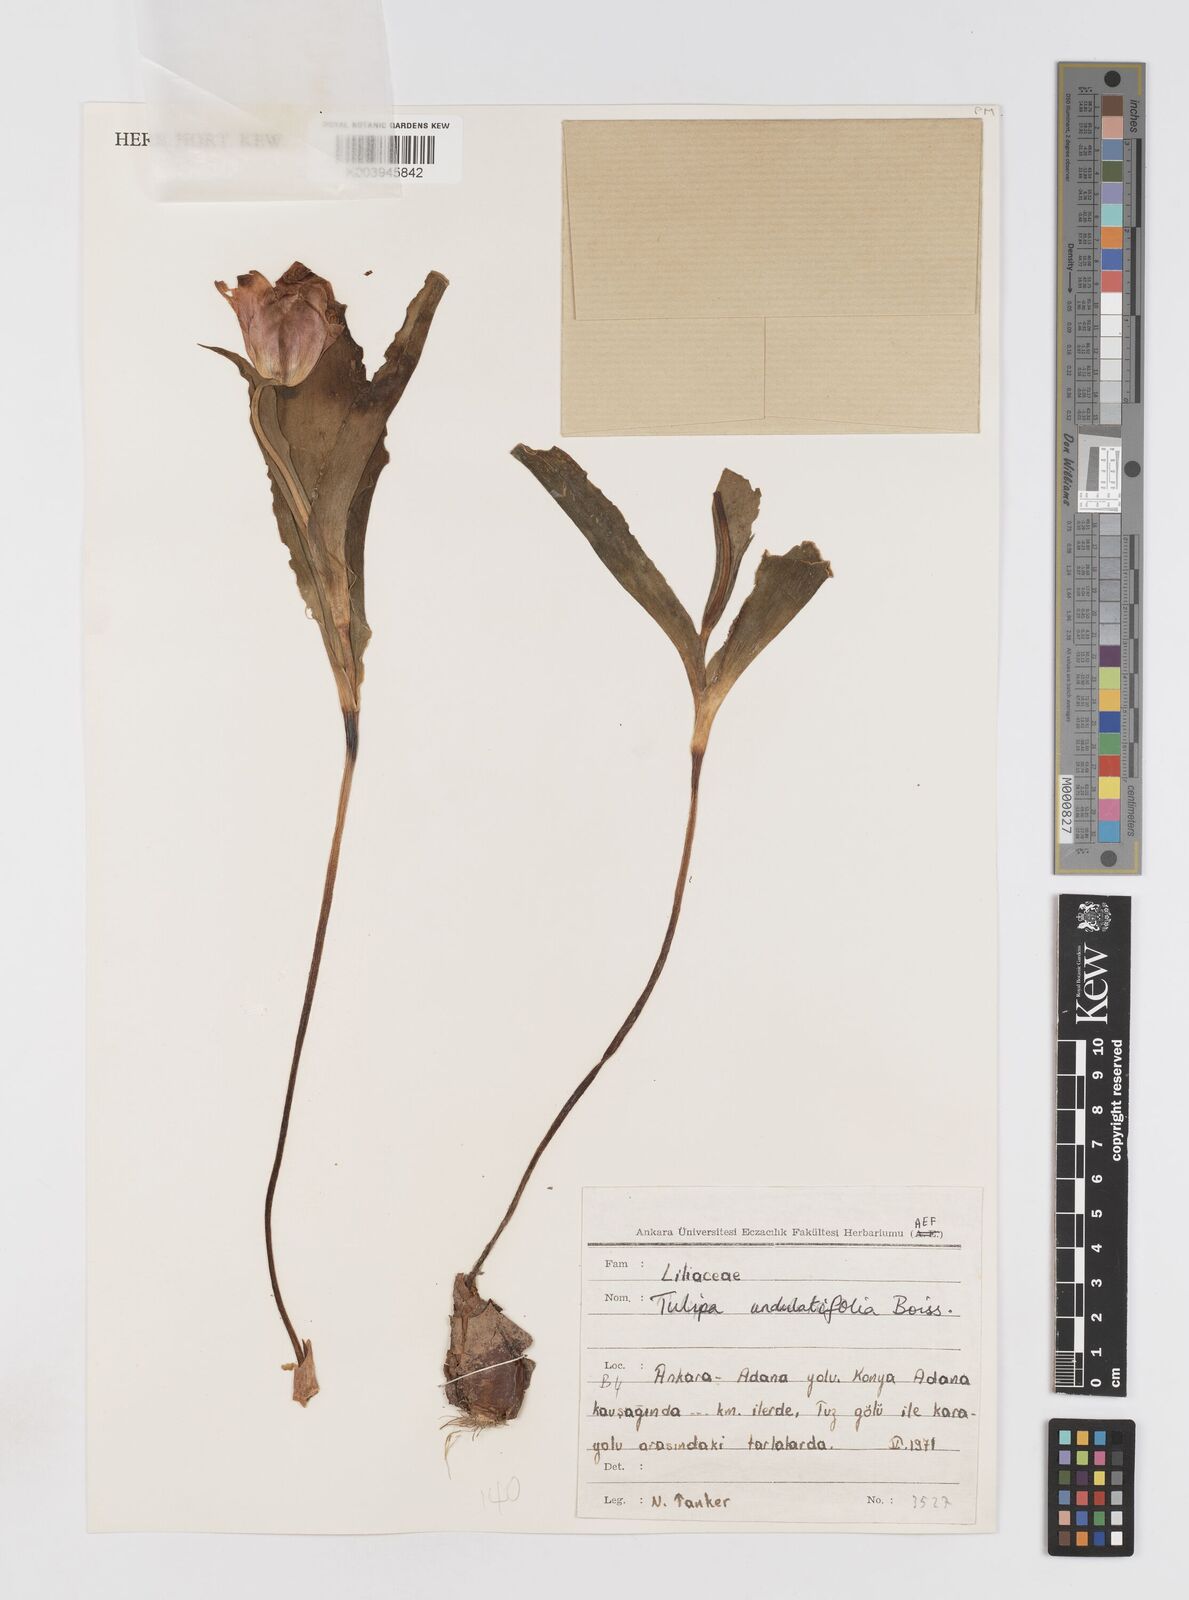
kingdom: Plantae
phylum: Tracheophyta
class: Liliopsida
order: Liliales
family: Liliaceae
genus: Tulipa
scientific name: Tulipa undulatifolia
